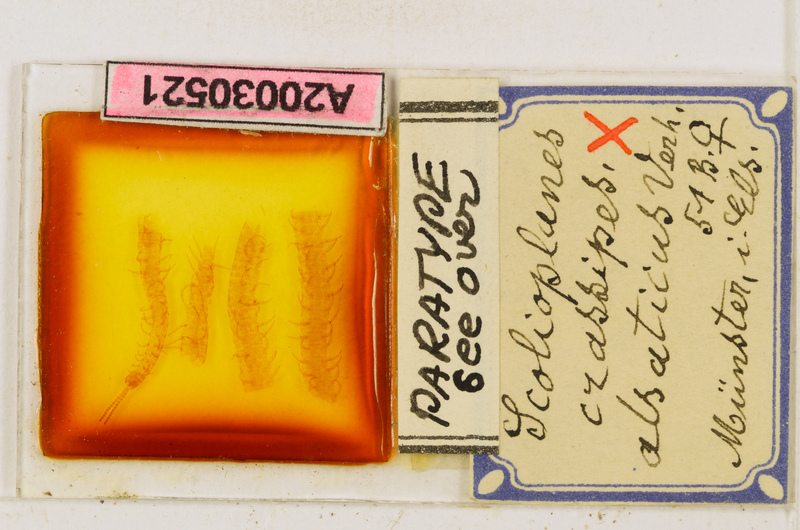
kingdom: Animalia
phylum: Arthropoda
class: Chilopoda
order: Geophilomorpha
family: Linotaeniidae
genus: Strigamia
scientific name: Strigamia crassipes
